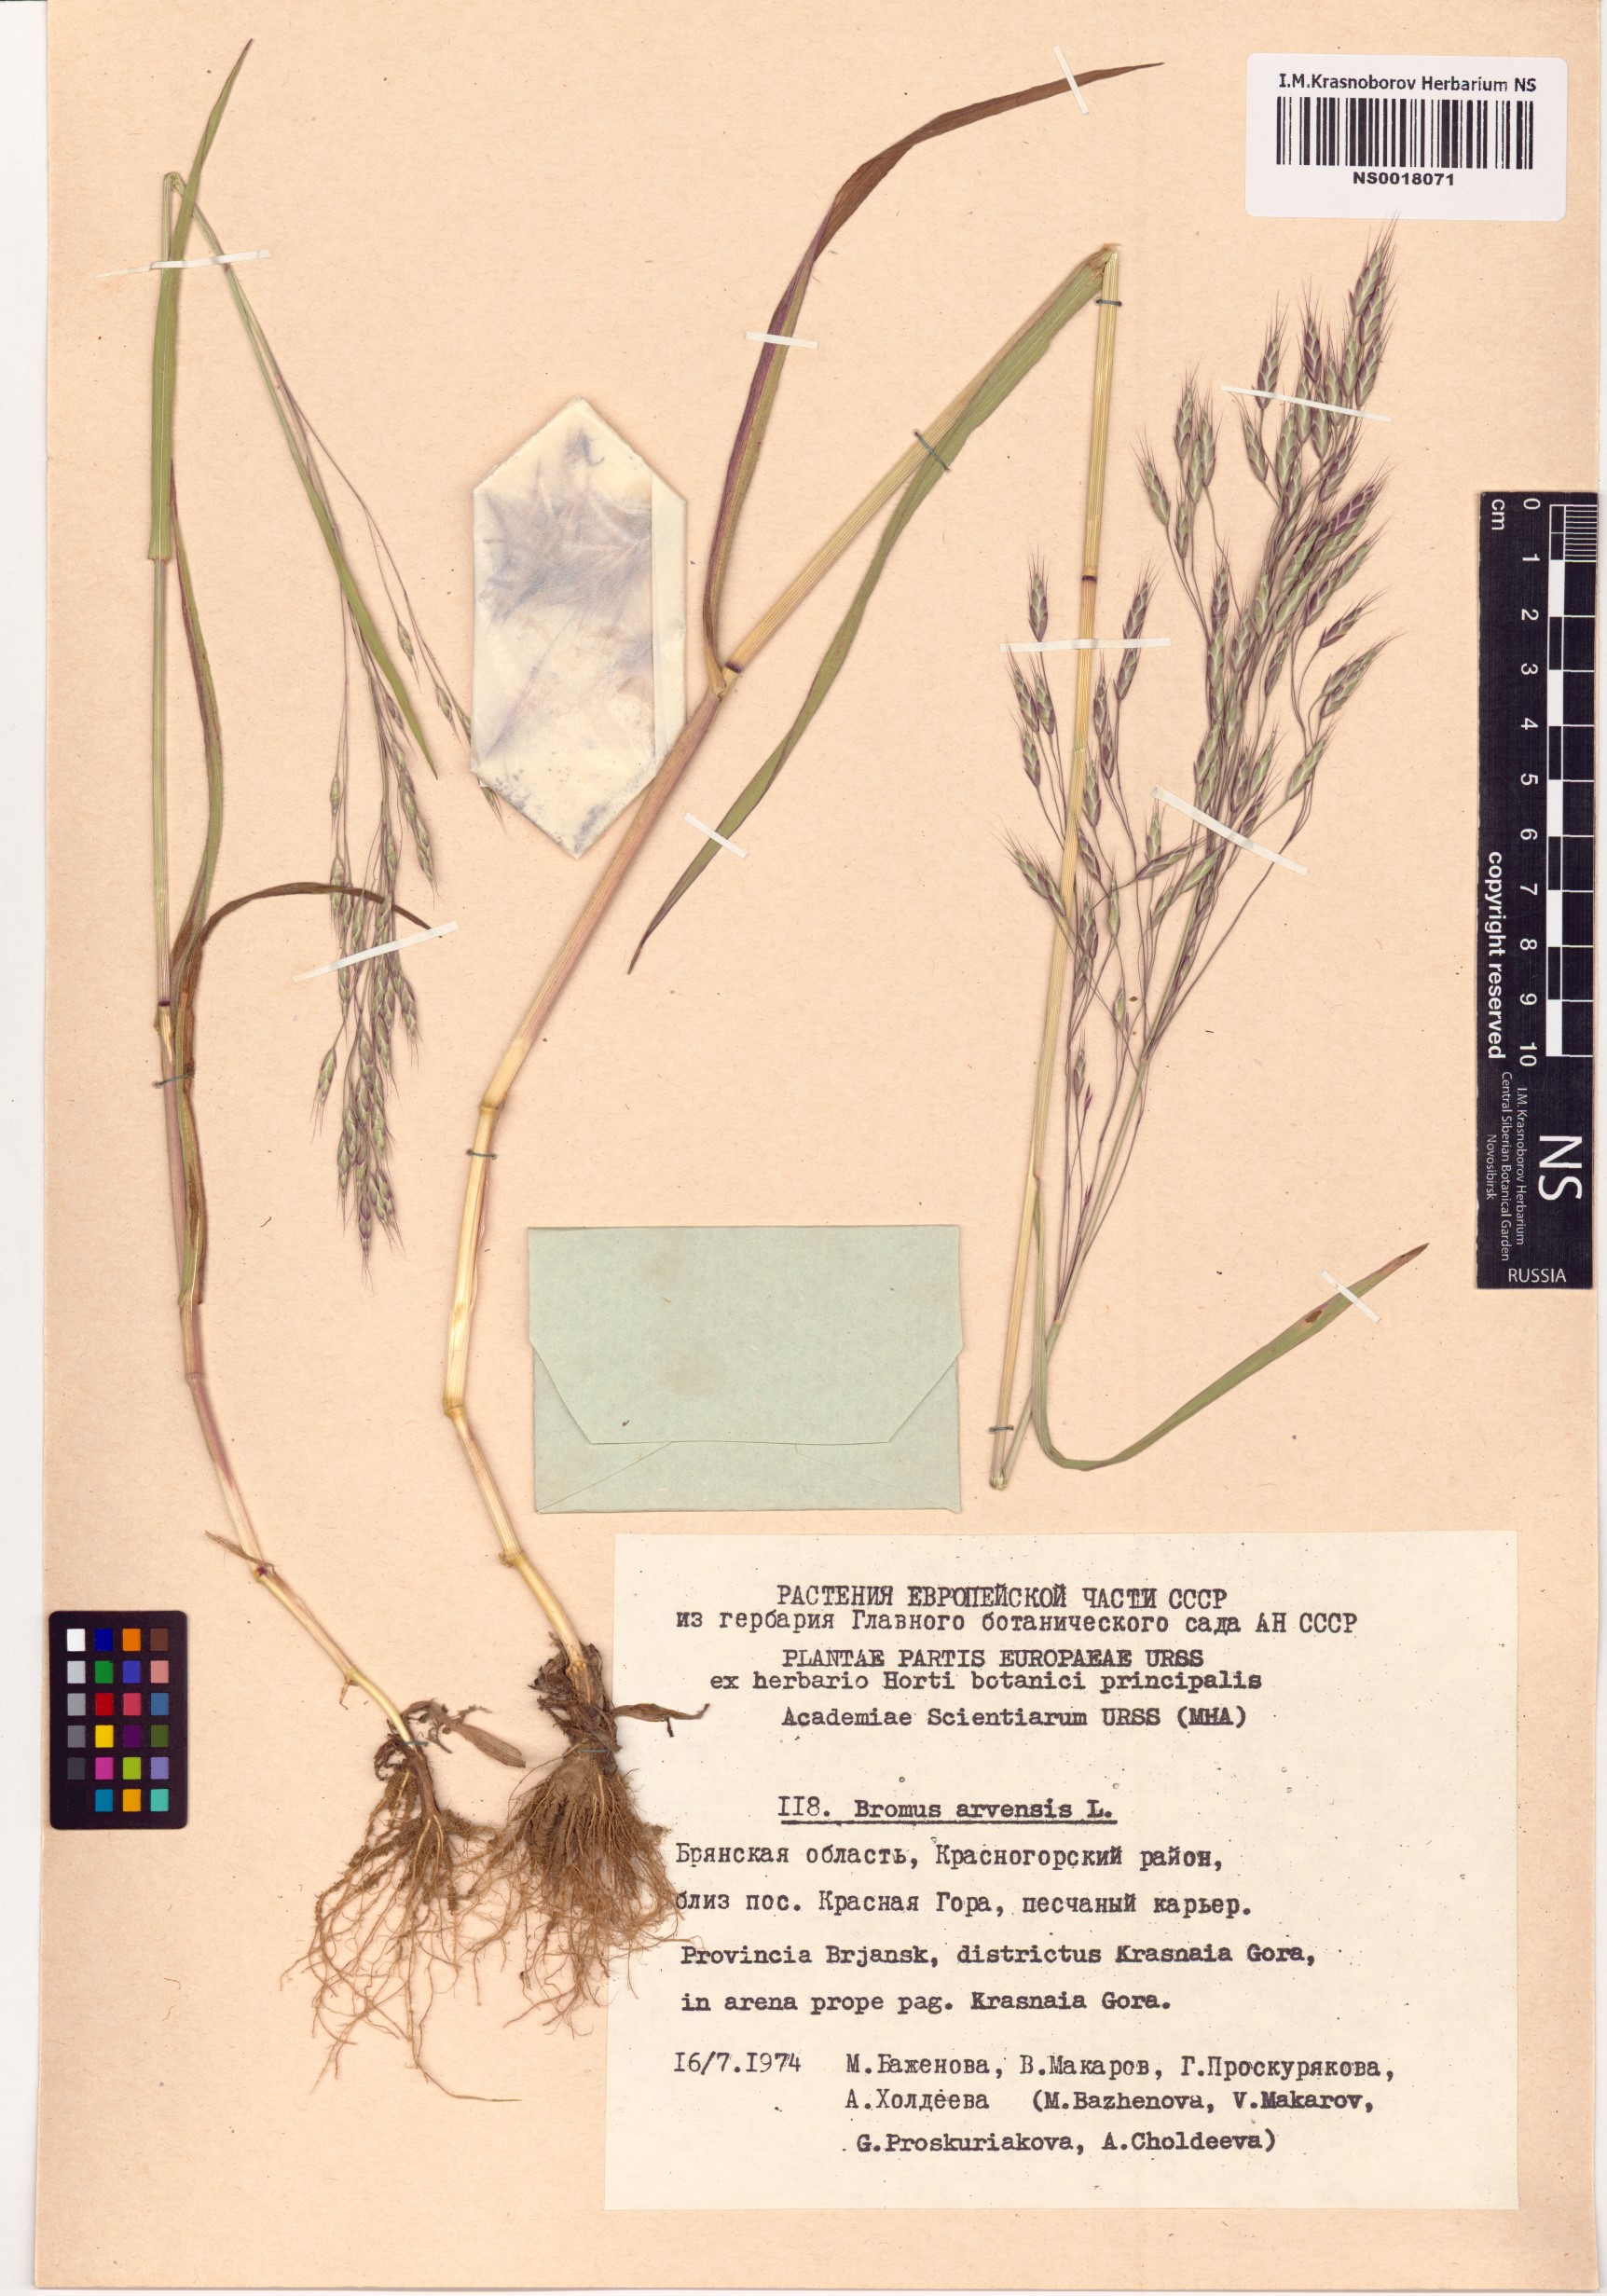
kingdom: Plantae
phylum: Tracheophyta
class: Liliopsida
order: Poales
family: Poaceae
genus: Bromus
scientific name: Bromus arvensis
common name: Field brome
